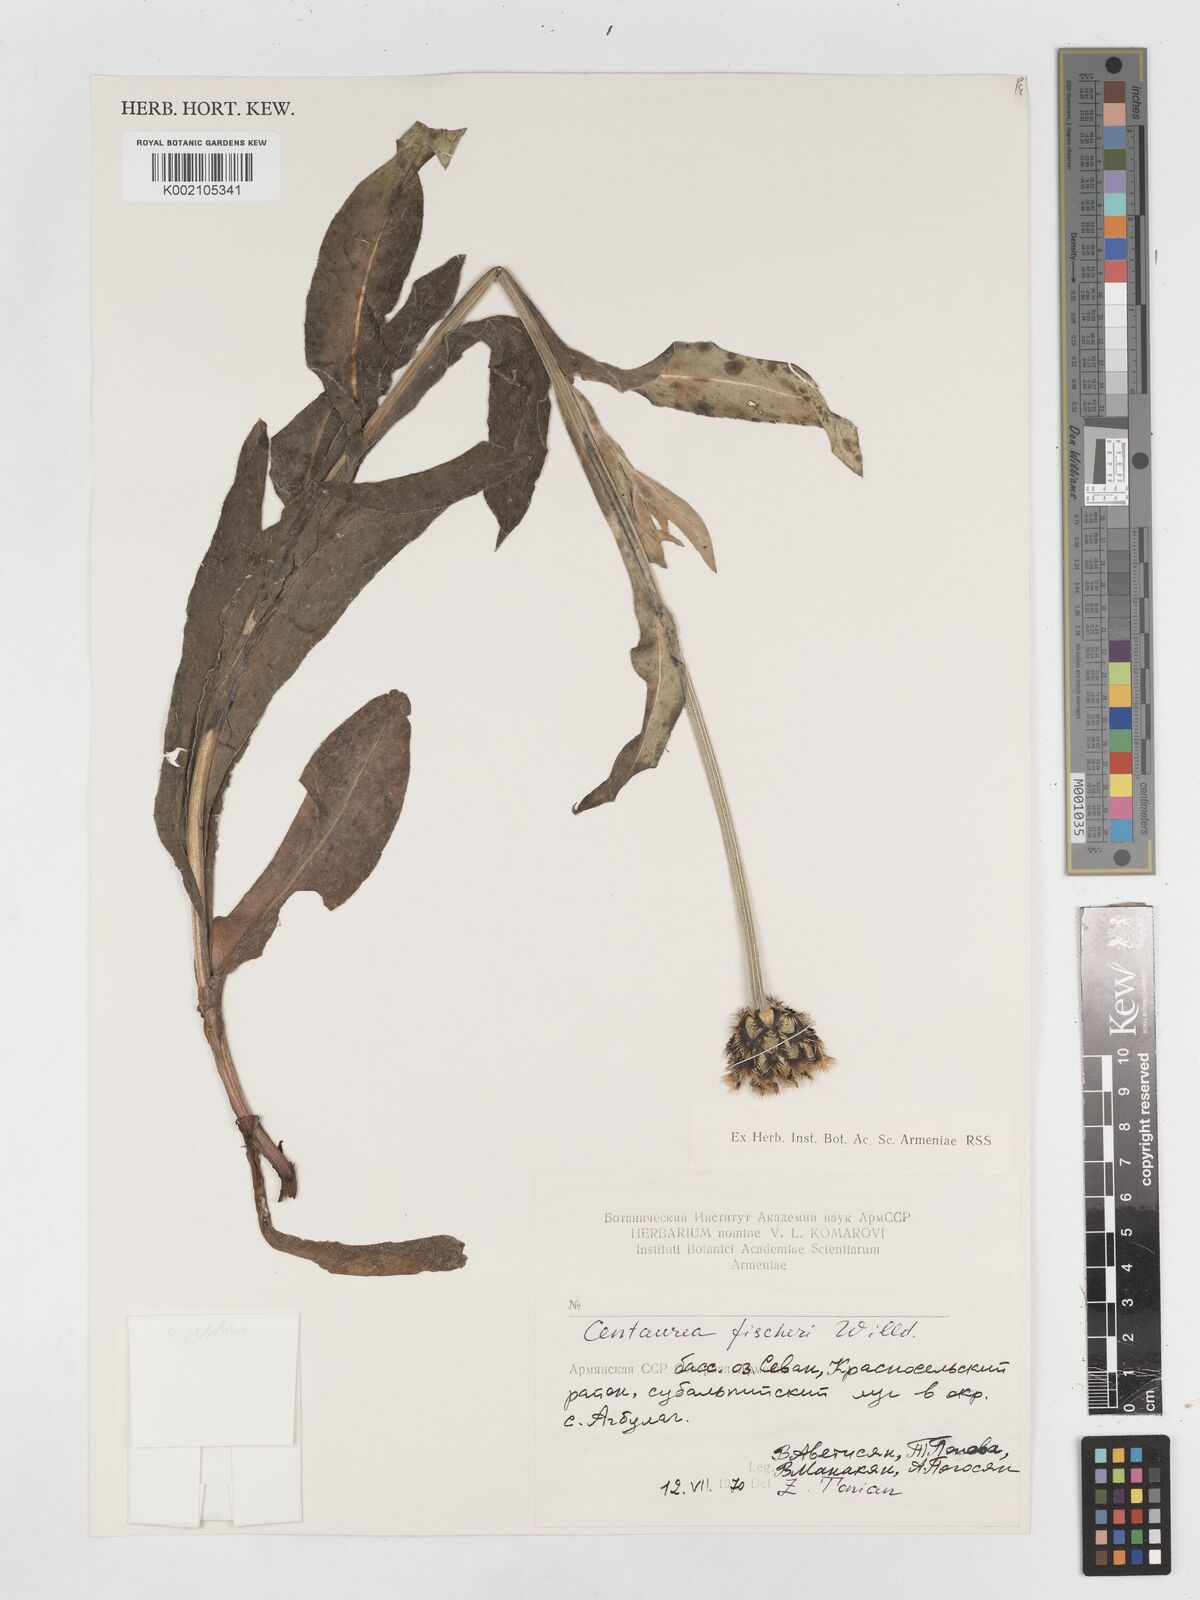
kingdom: Plantae
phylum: Tracheophyta
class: Magnoliopsida
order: Asterales
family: Asteraceae
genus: Centaurea
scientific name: Centaurea cheiranthifolia
